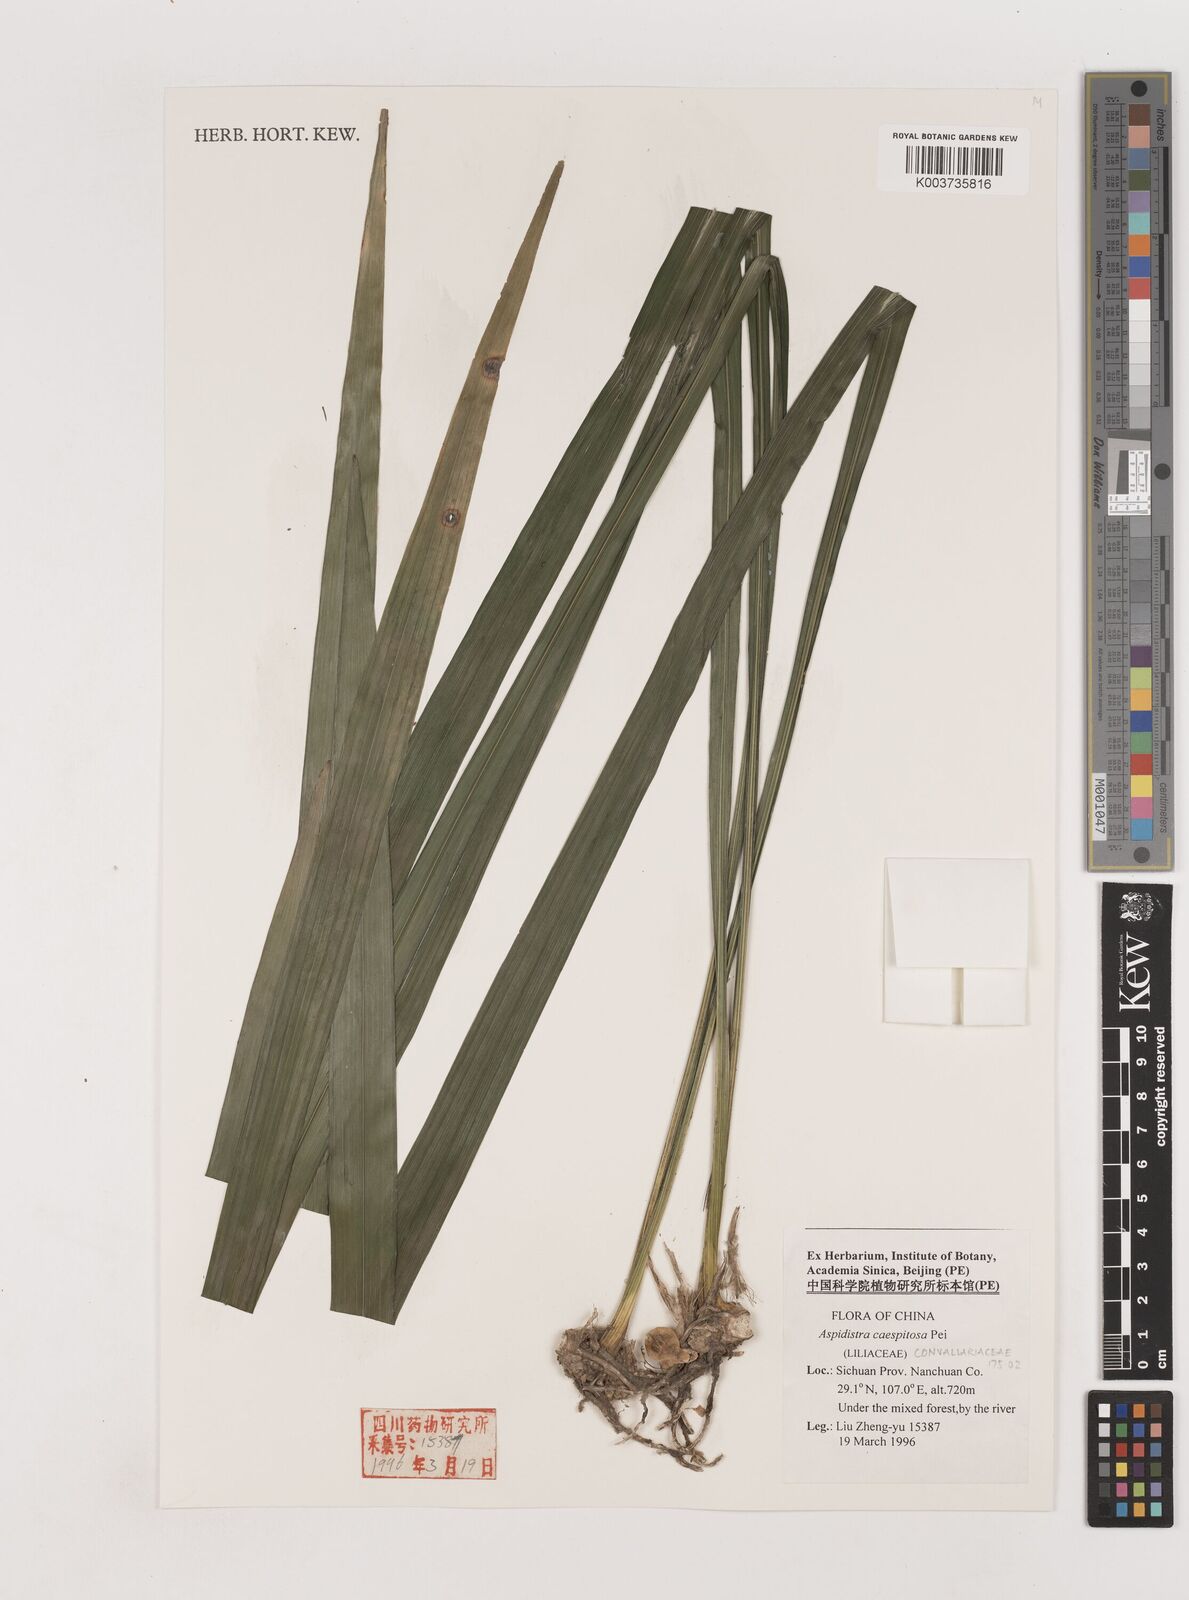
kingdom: Plantae
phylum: Tracheophyta
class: Liliopsida
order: Asparagales
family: Asparagaceae
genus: Aspidistra
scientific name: Aspidistra caespitosa
